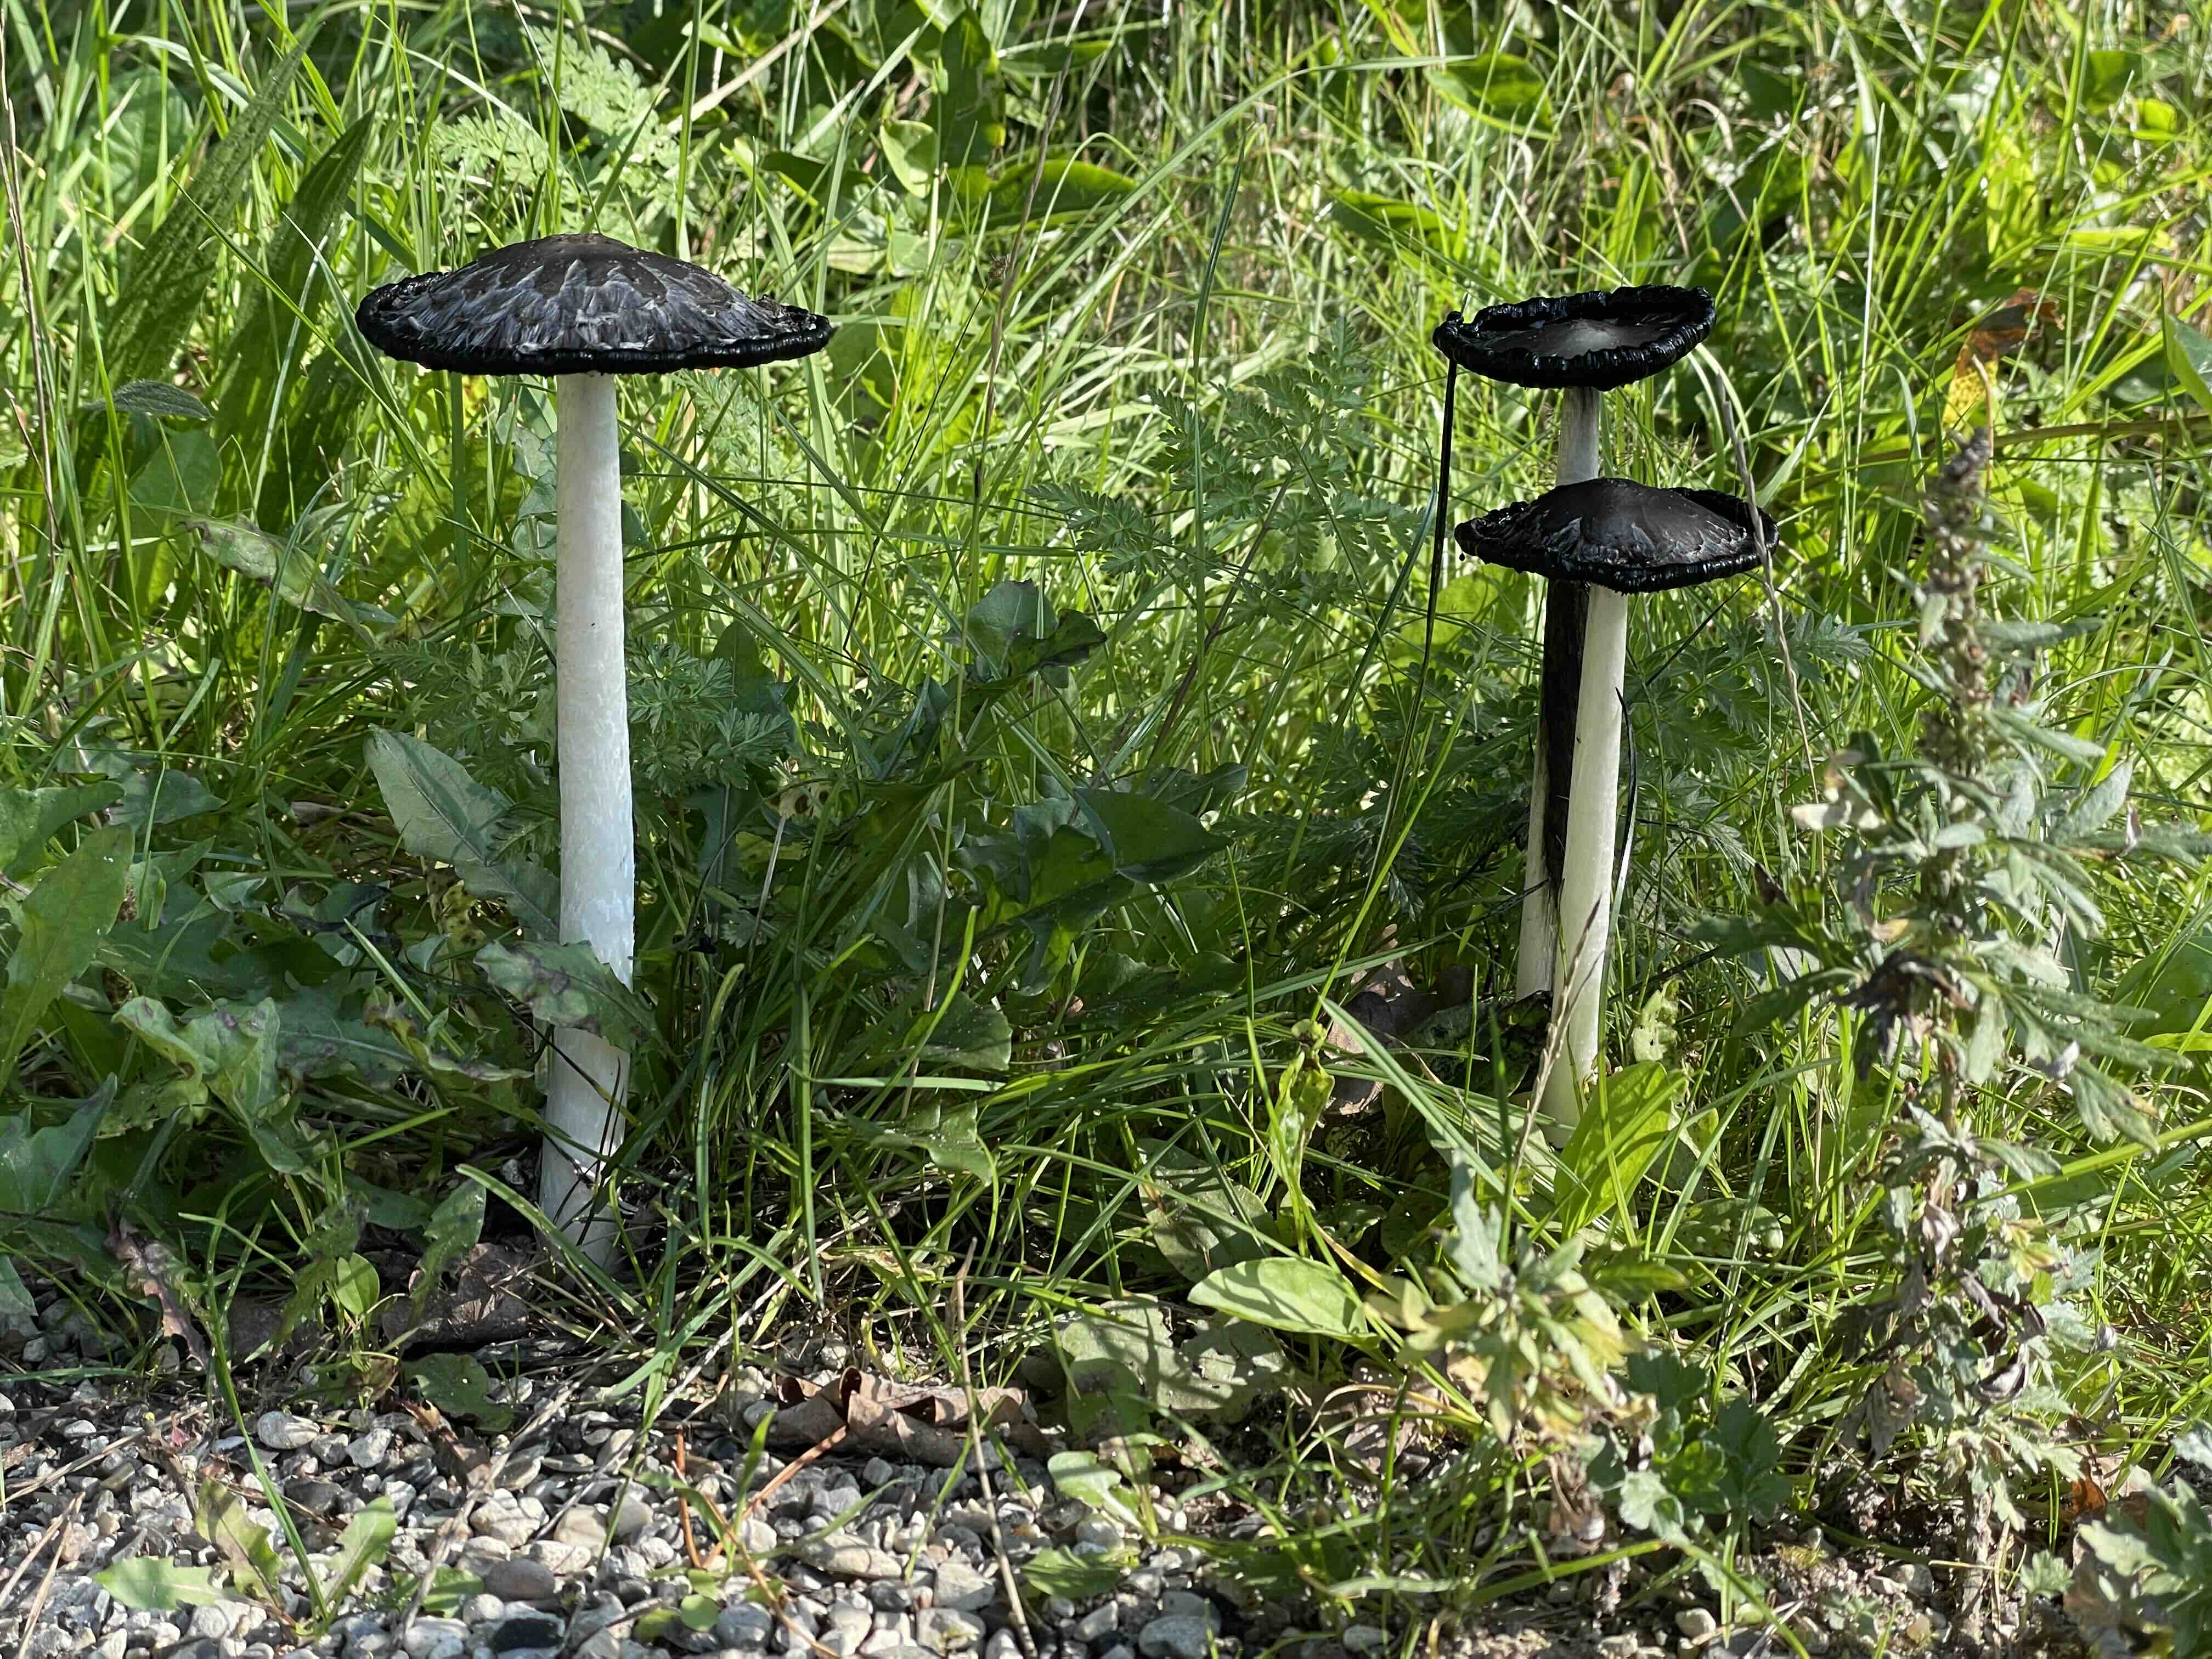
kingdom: Fungi
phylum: Basidiomycota
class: Agaricomycetes
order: Agaricales
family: Agaricaceae
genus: Coprinus
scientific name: Coprinus comatus
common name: stor parykhat
